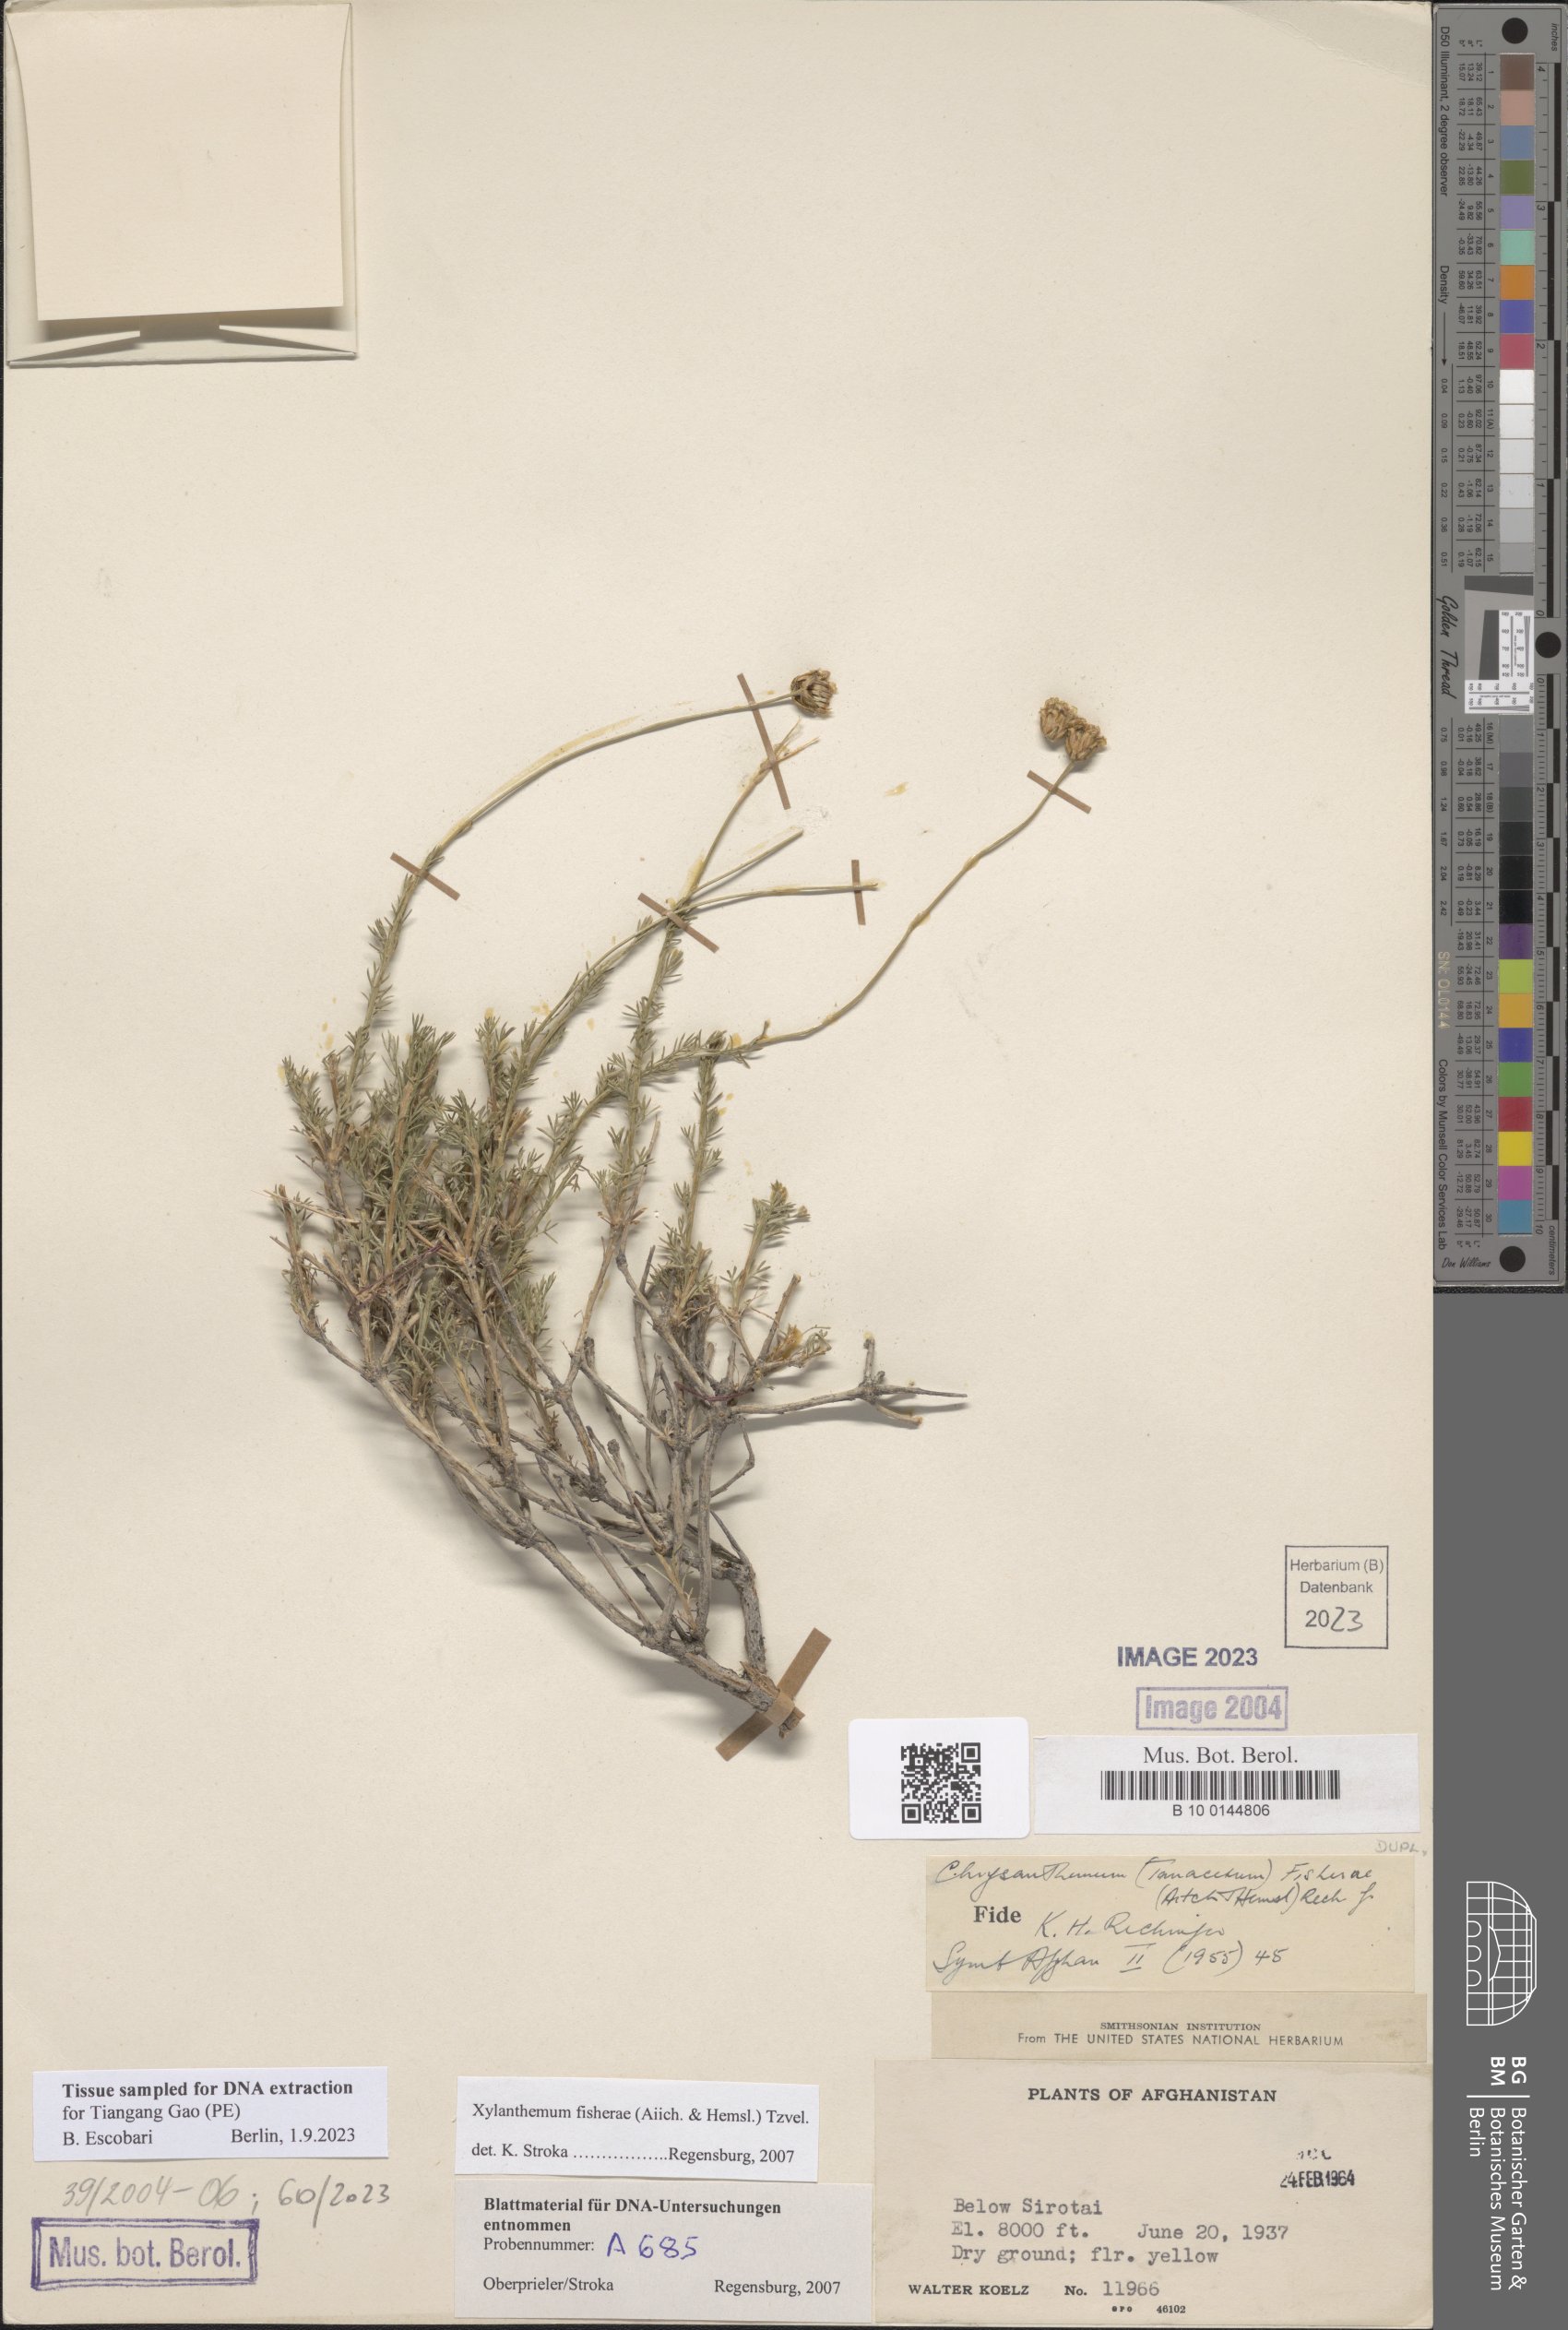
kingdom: Plantae
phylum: Tracheophyta
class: Magnoliopsida
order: Asterales
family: Asteraceae
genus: Xylanthemum
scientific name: Xylanthemum fisherae
